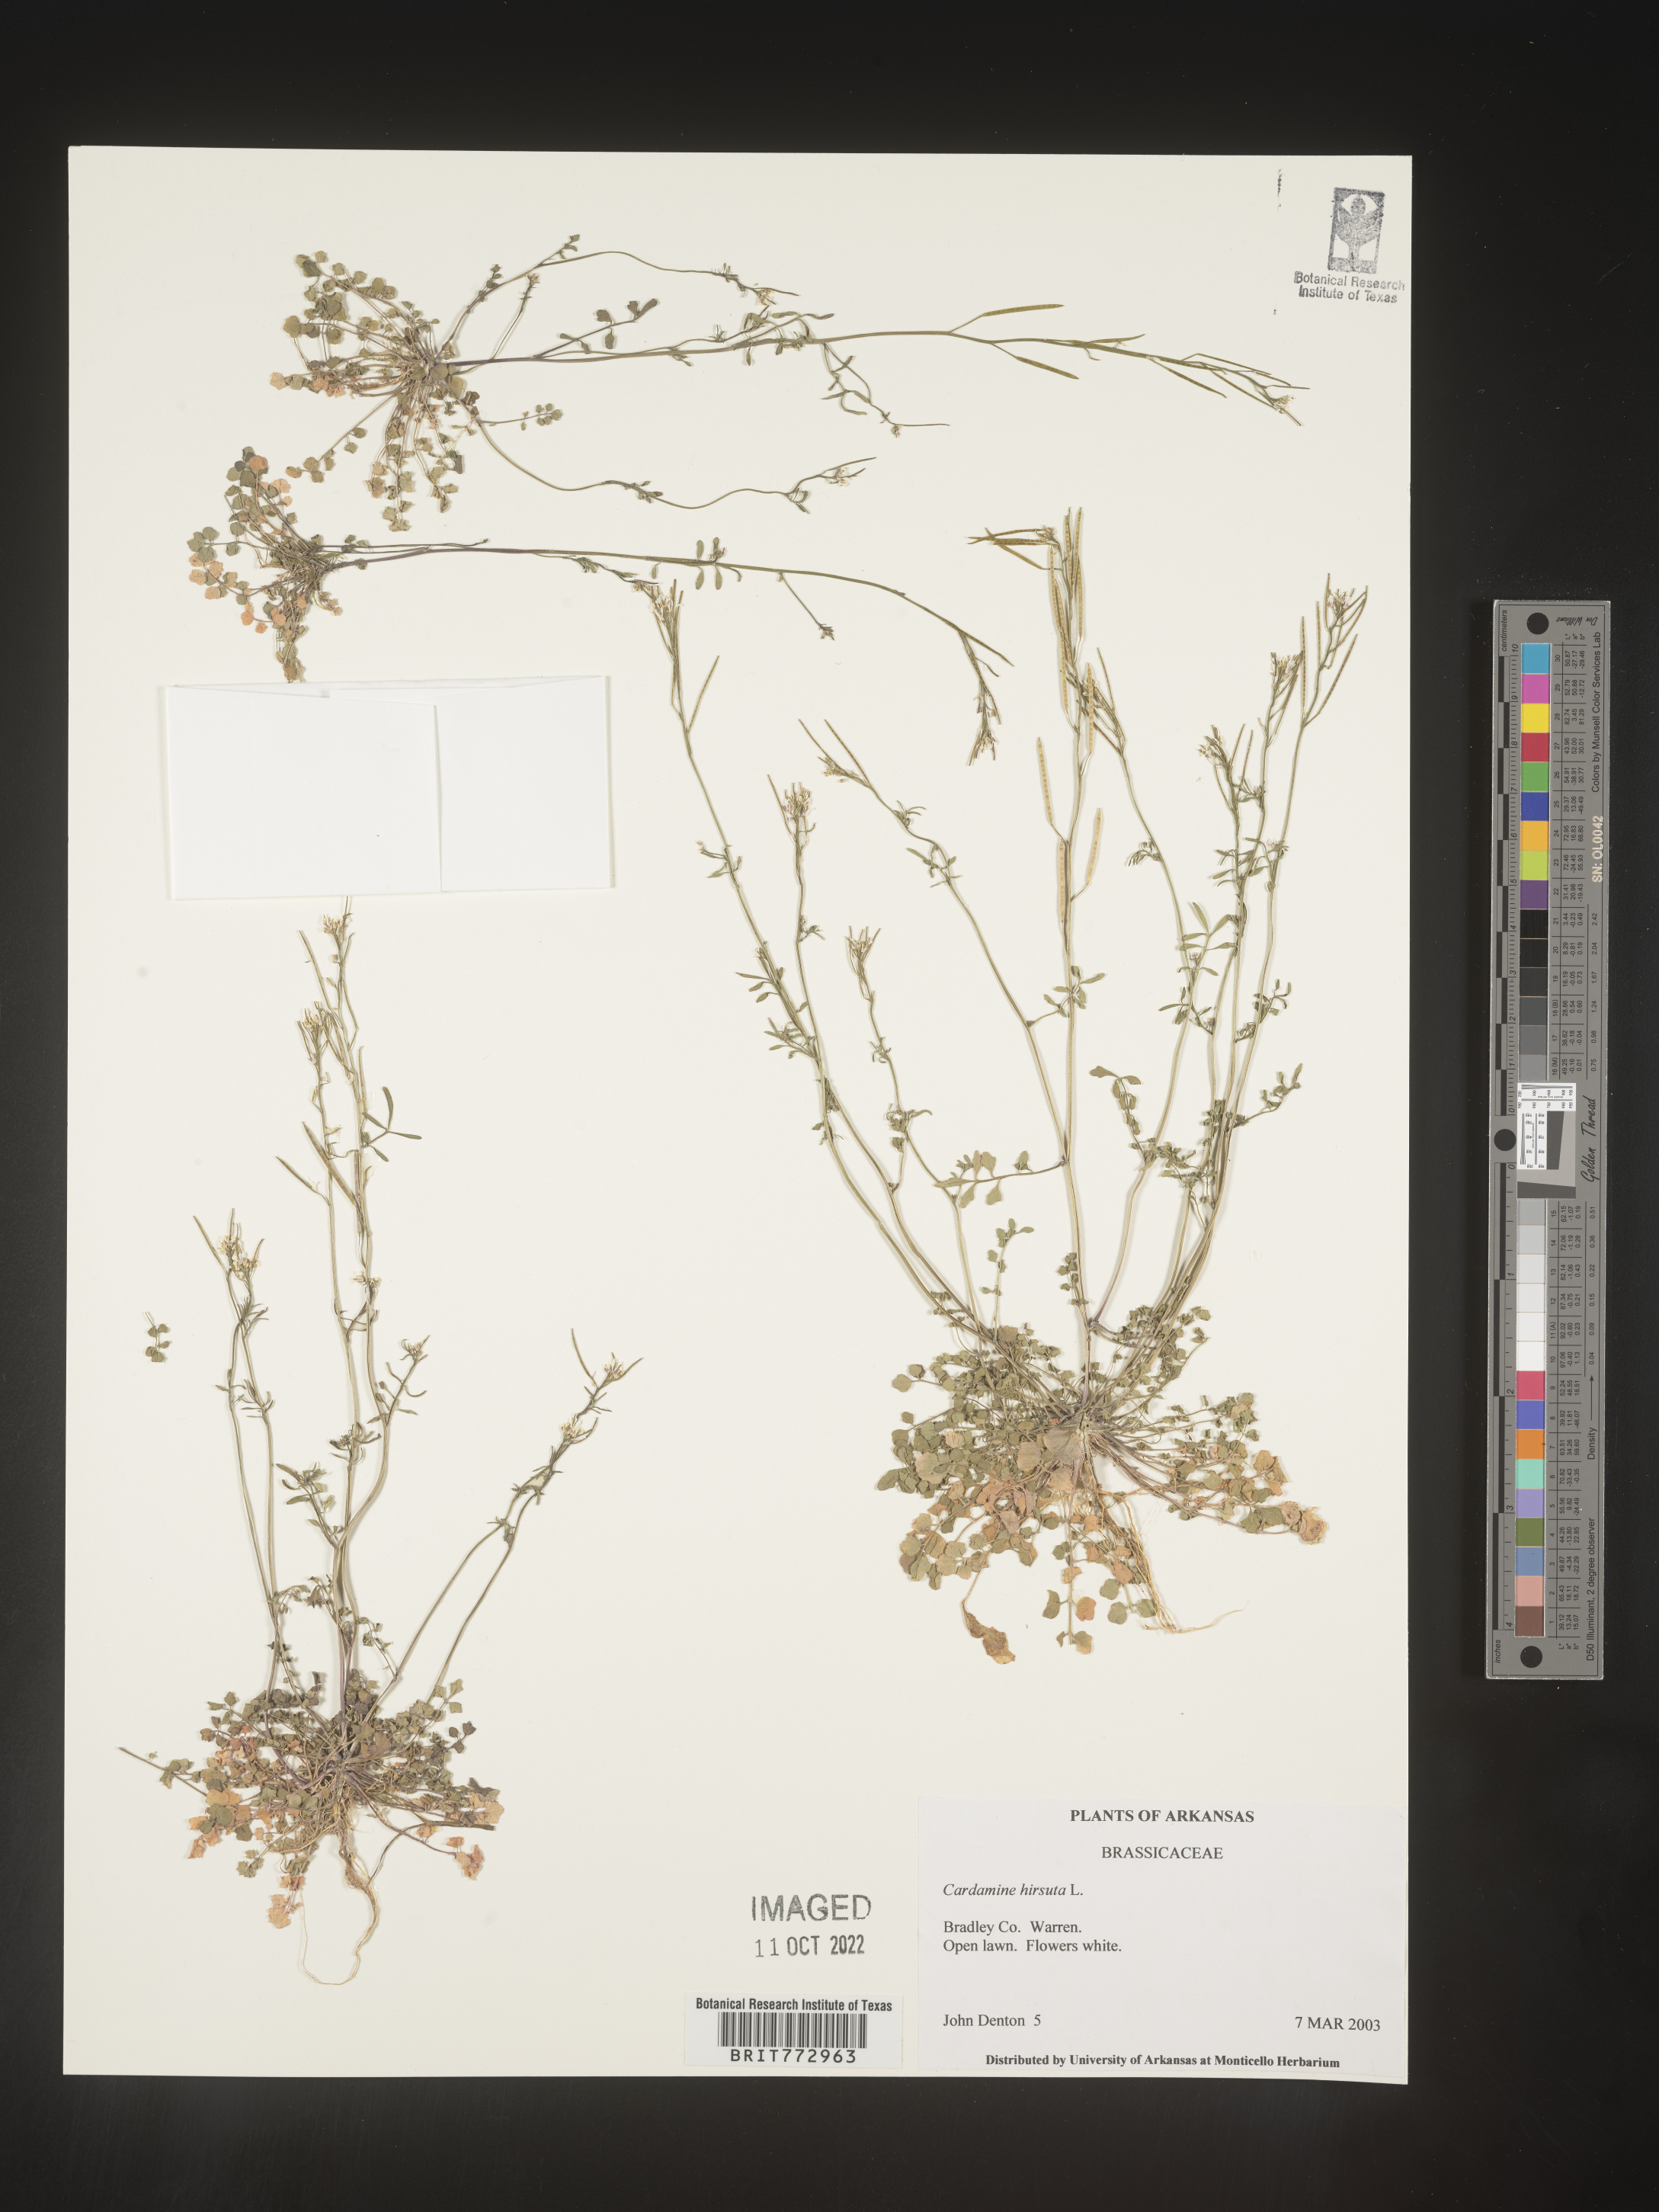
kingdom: Plantae
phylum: Tracheophyta
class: Magnoliopsida
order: Brassicales
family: Brassicaceae
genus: Cardamine
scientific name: Cardamine hirsuta
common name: Hairy bittercress
